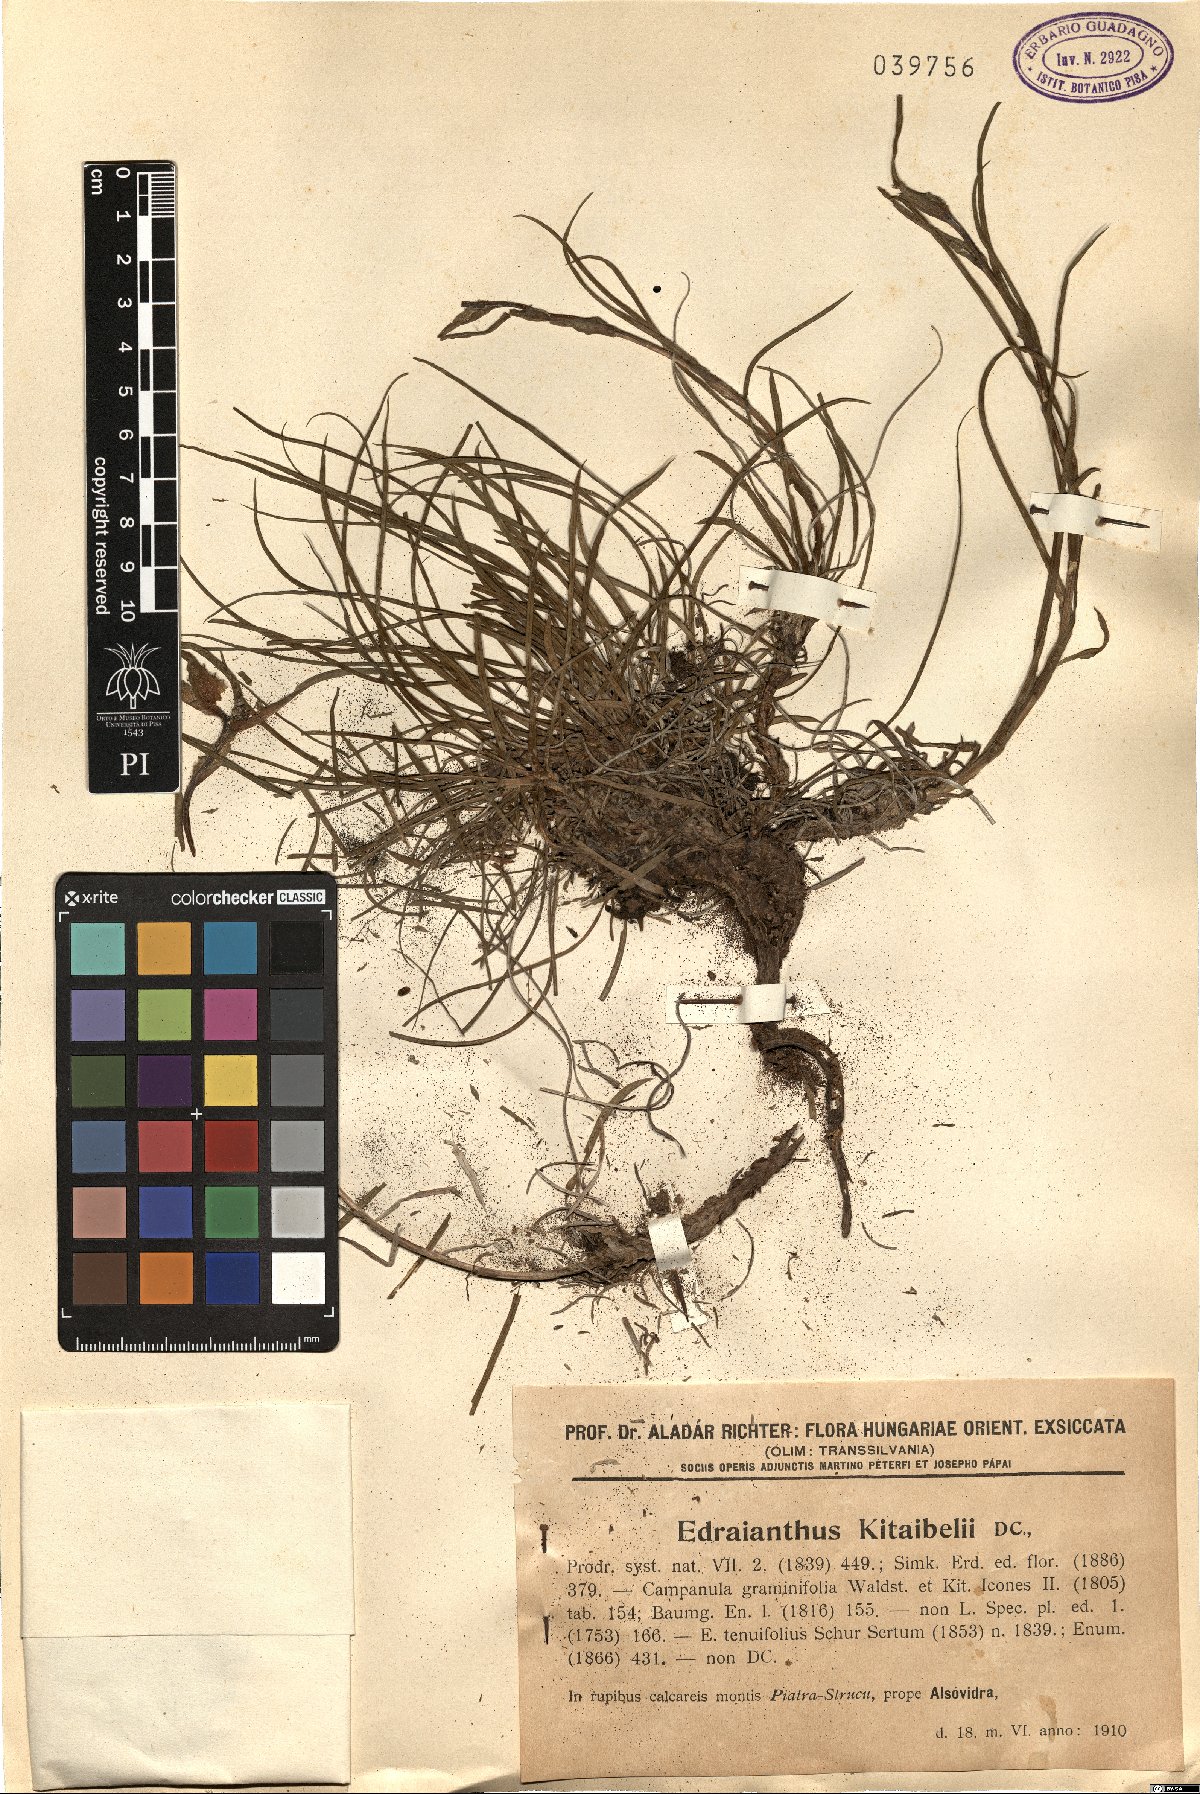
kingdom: Plantae
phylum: Tracheophyta
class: Magnoliopsida
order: Asterales
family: Campanulaceae
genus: Edraianthus
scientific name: Edraianthus graminifolius
